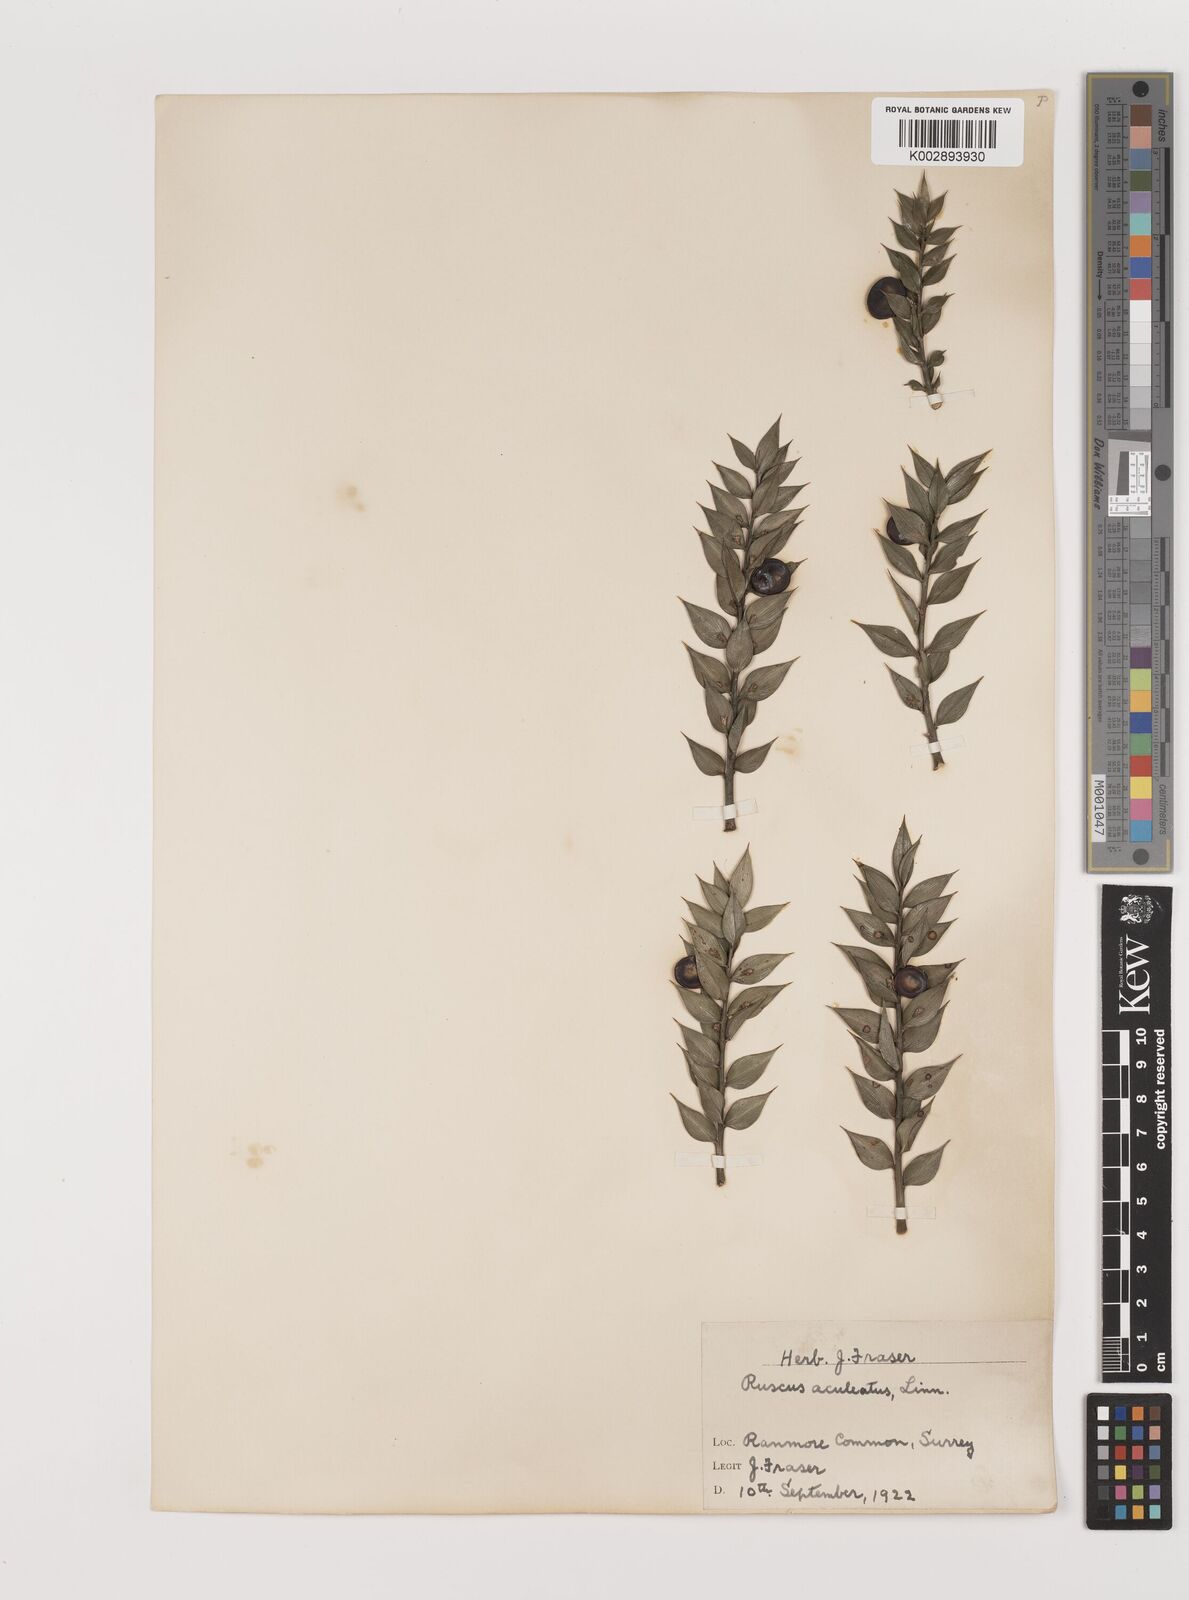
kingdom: Plantae
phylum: Tracheophyta
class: Liliopsida
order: Asparagales
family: Asparagaceae
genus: Ruscus
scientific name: Ruscus aculeatus
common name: Butcher's-broom
